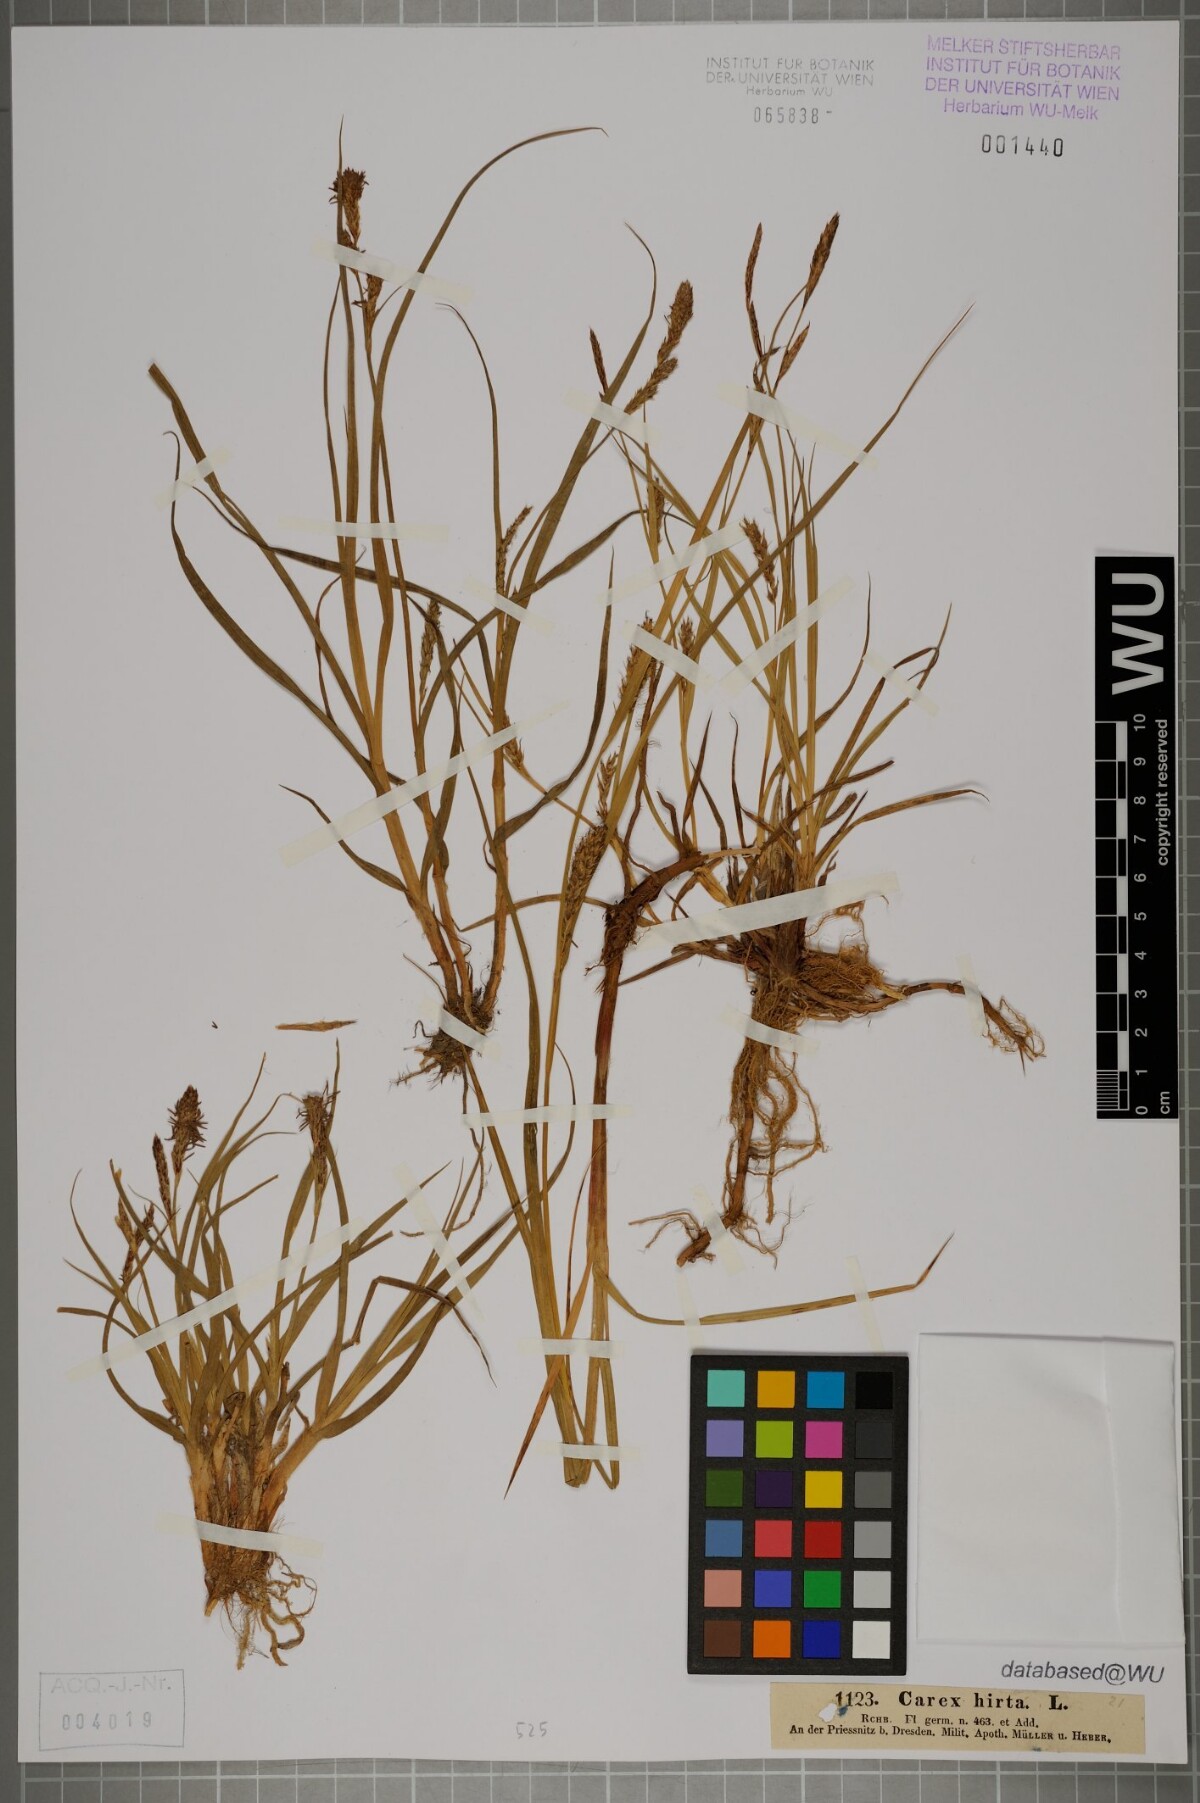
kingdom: Plantae
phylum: Tracheophyta
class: Liliopsida
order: Poales
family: Cyperaceae
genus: Carex
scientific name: Carex hirta
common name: Hairy sedge
